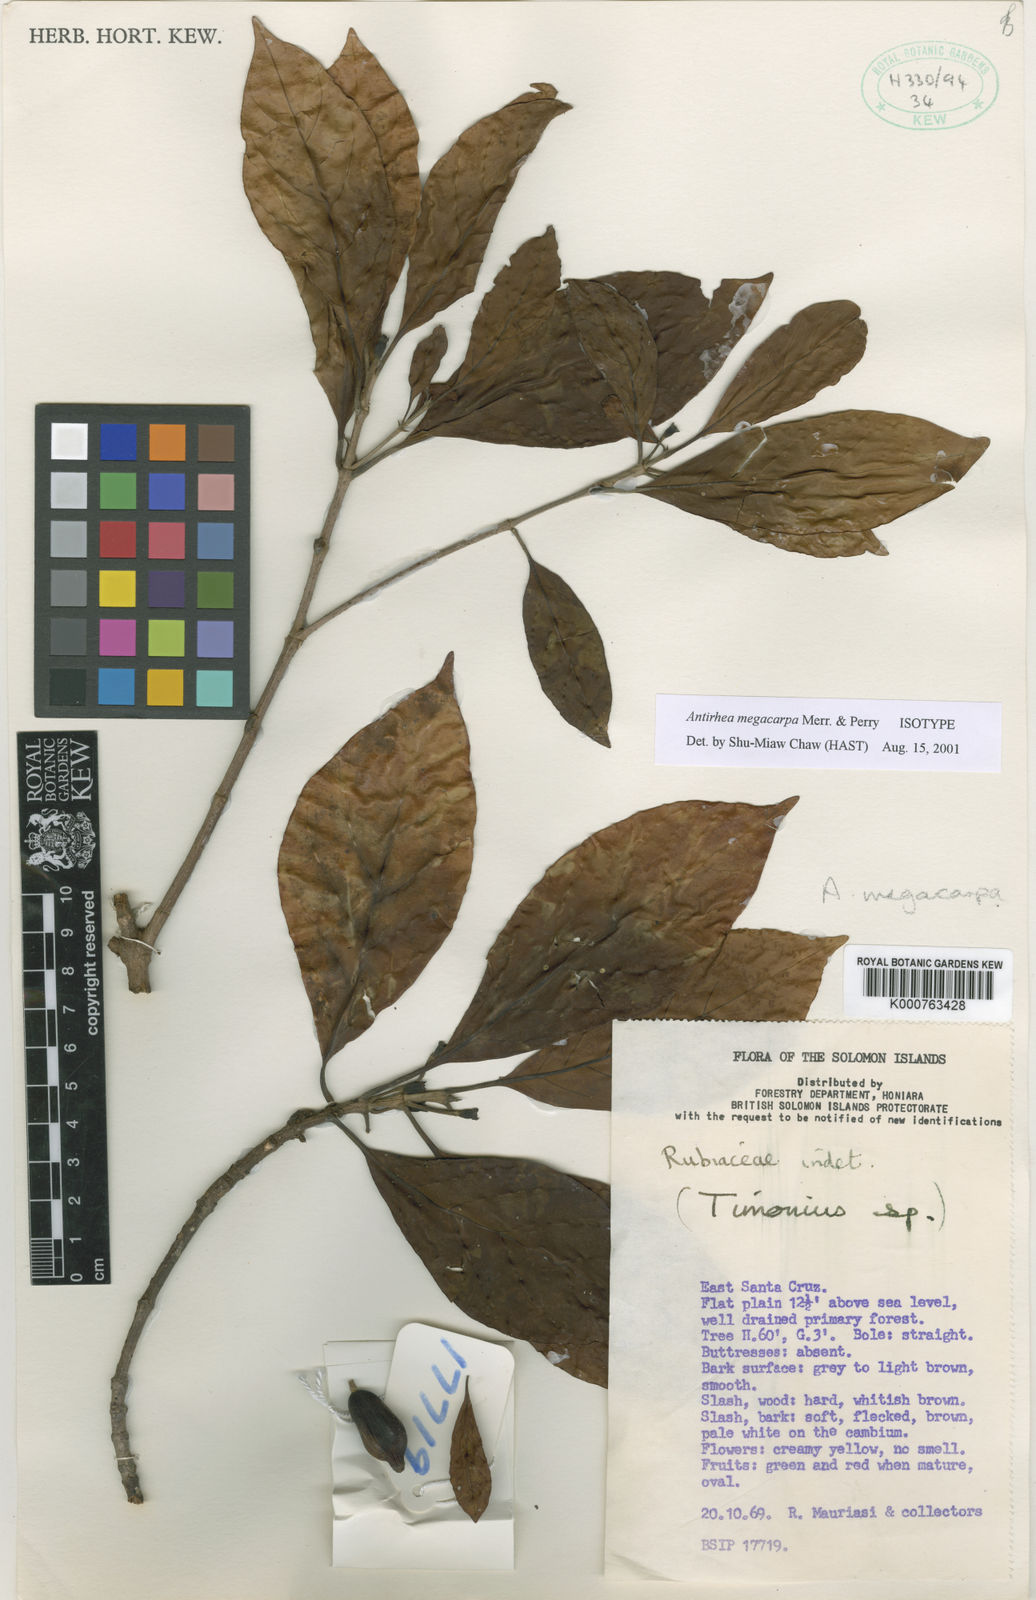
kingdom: Plantae
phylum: Tracheophyta
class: Magnoliopsida
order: Gentianales
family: Rubiaceae
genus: Achilleanthus
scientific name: Achilleanthus megacarpus
